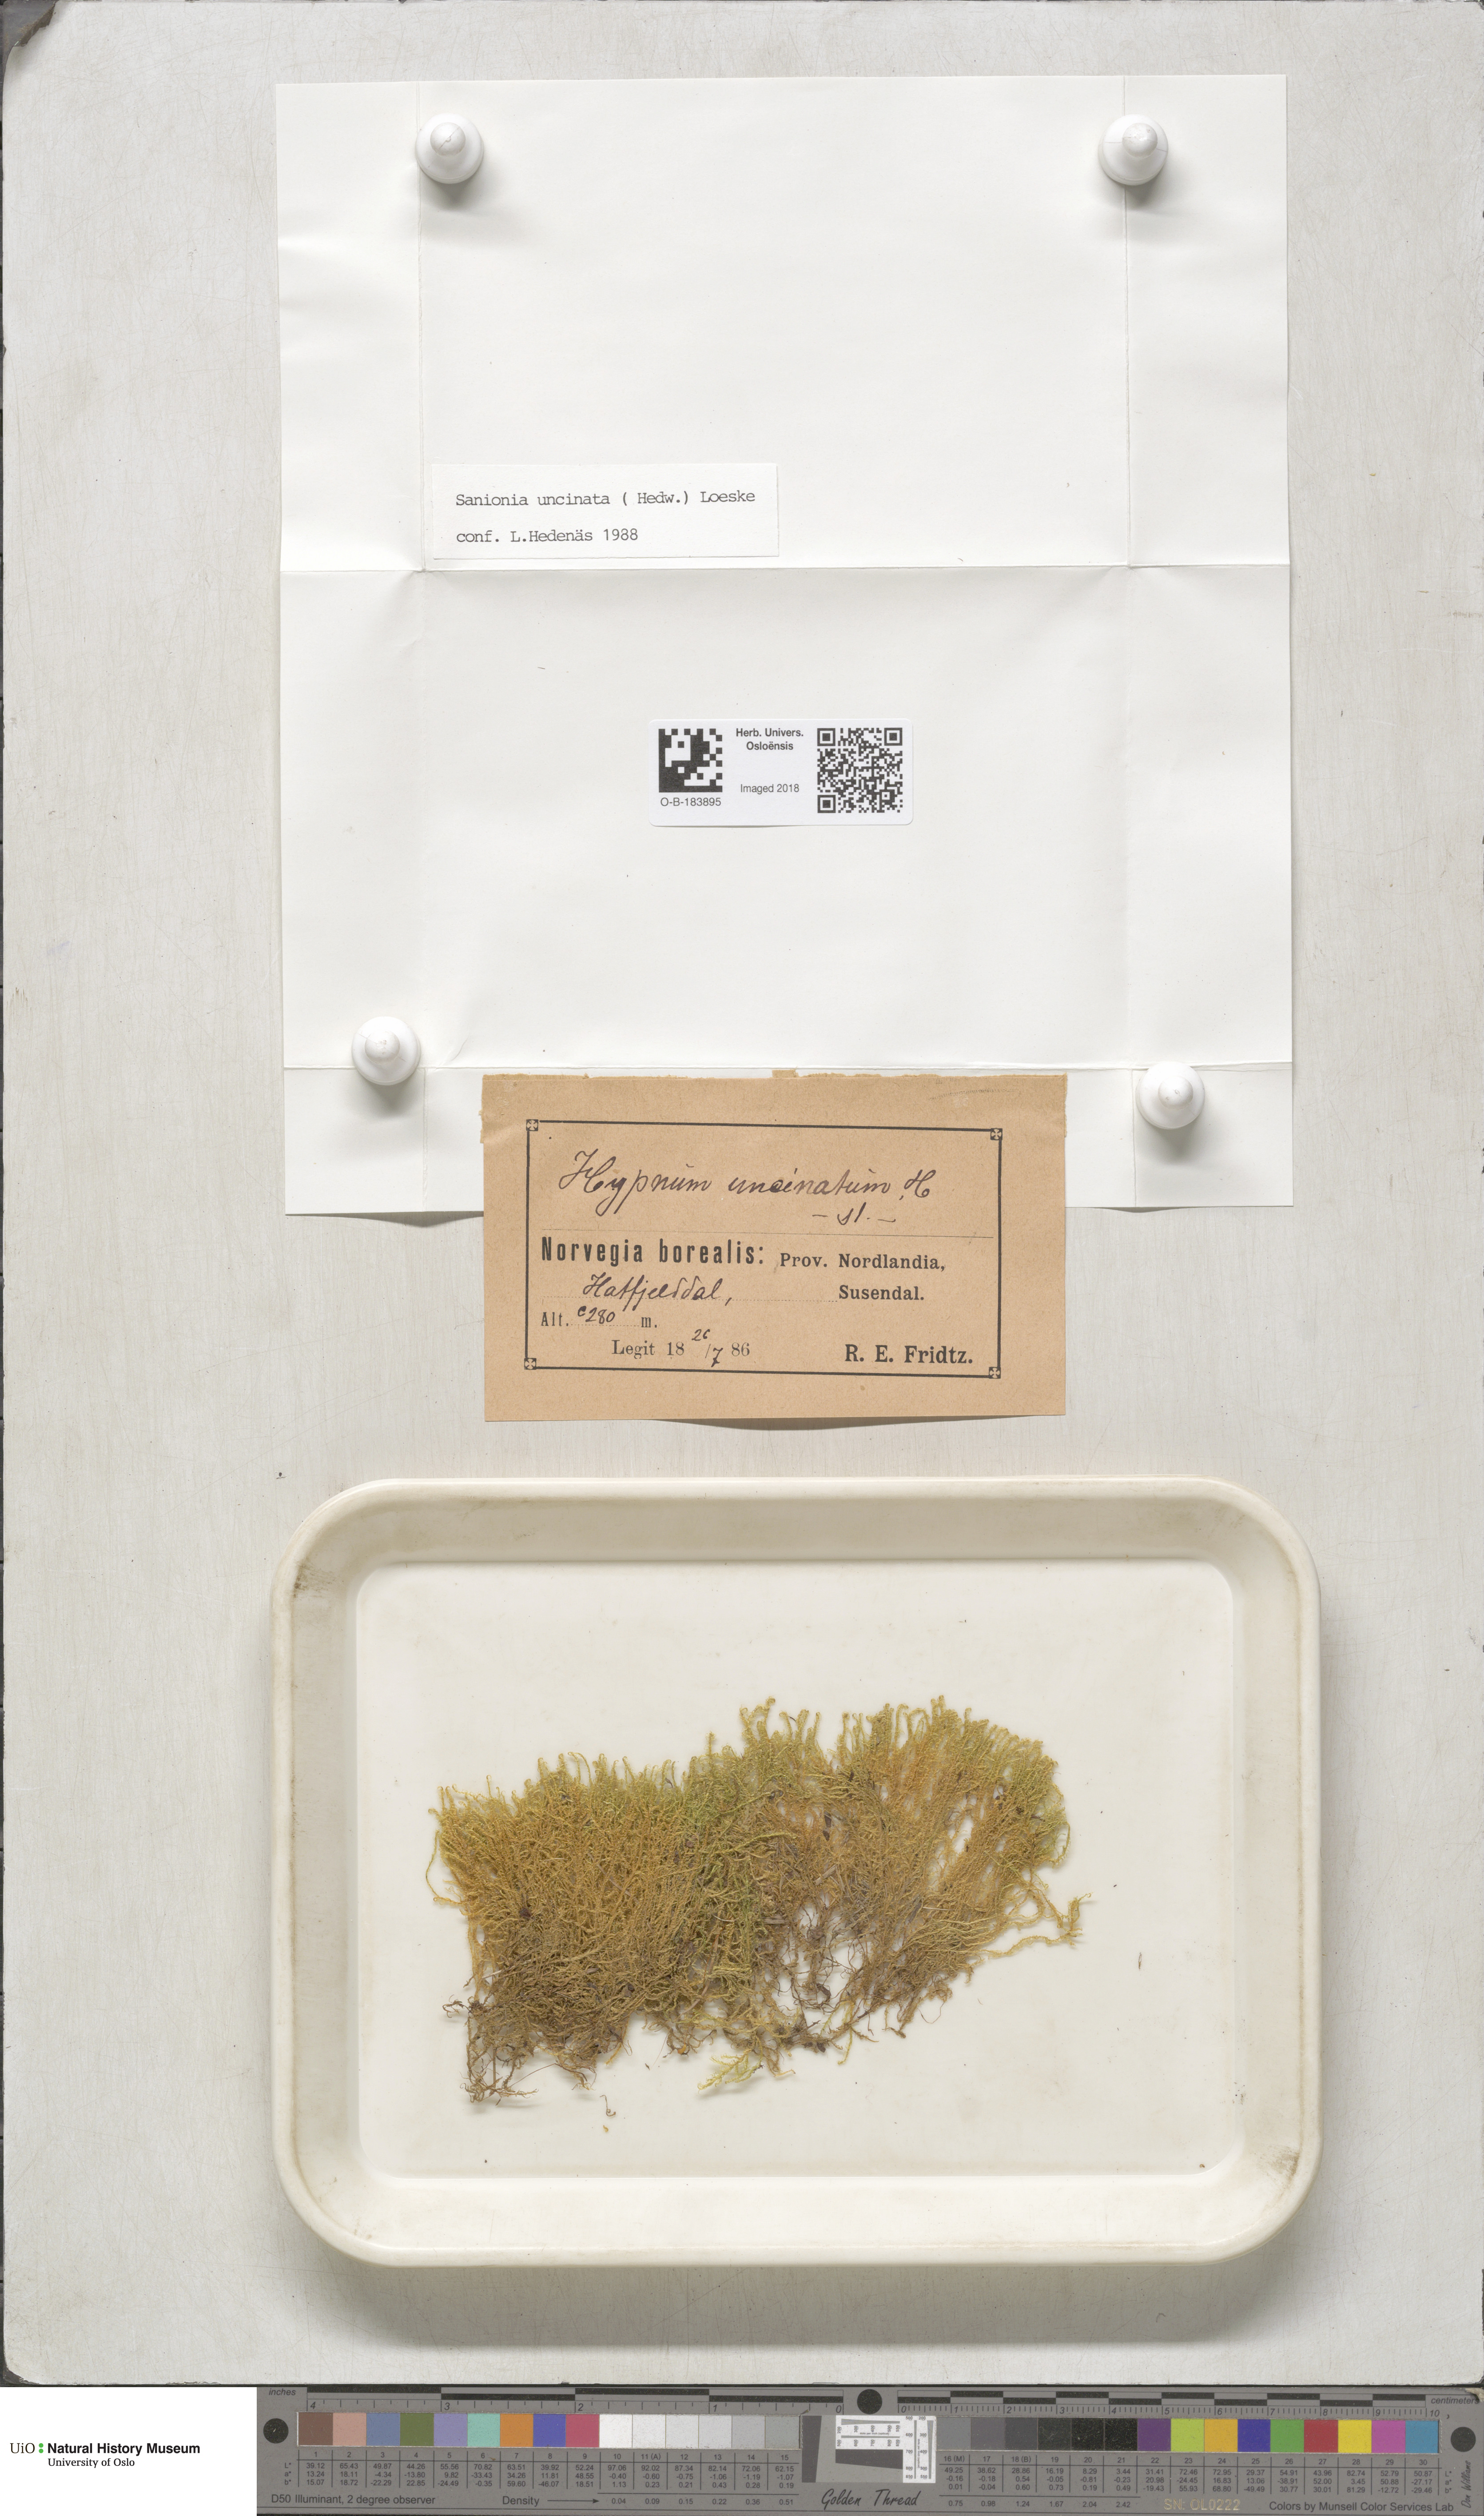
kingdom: Plantae
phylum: Bryophyta
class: Bryopsida
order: Hypnales
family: Scorpidiaceae
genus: Sanionia
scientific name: Sanionia uncinata
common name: Sickle moss
